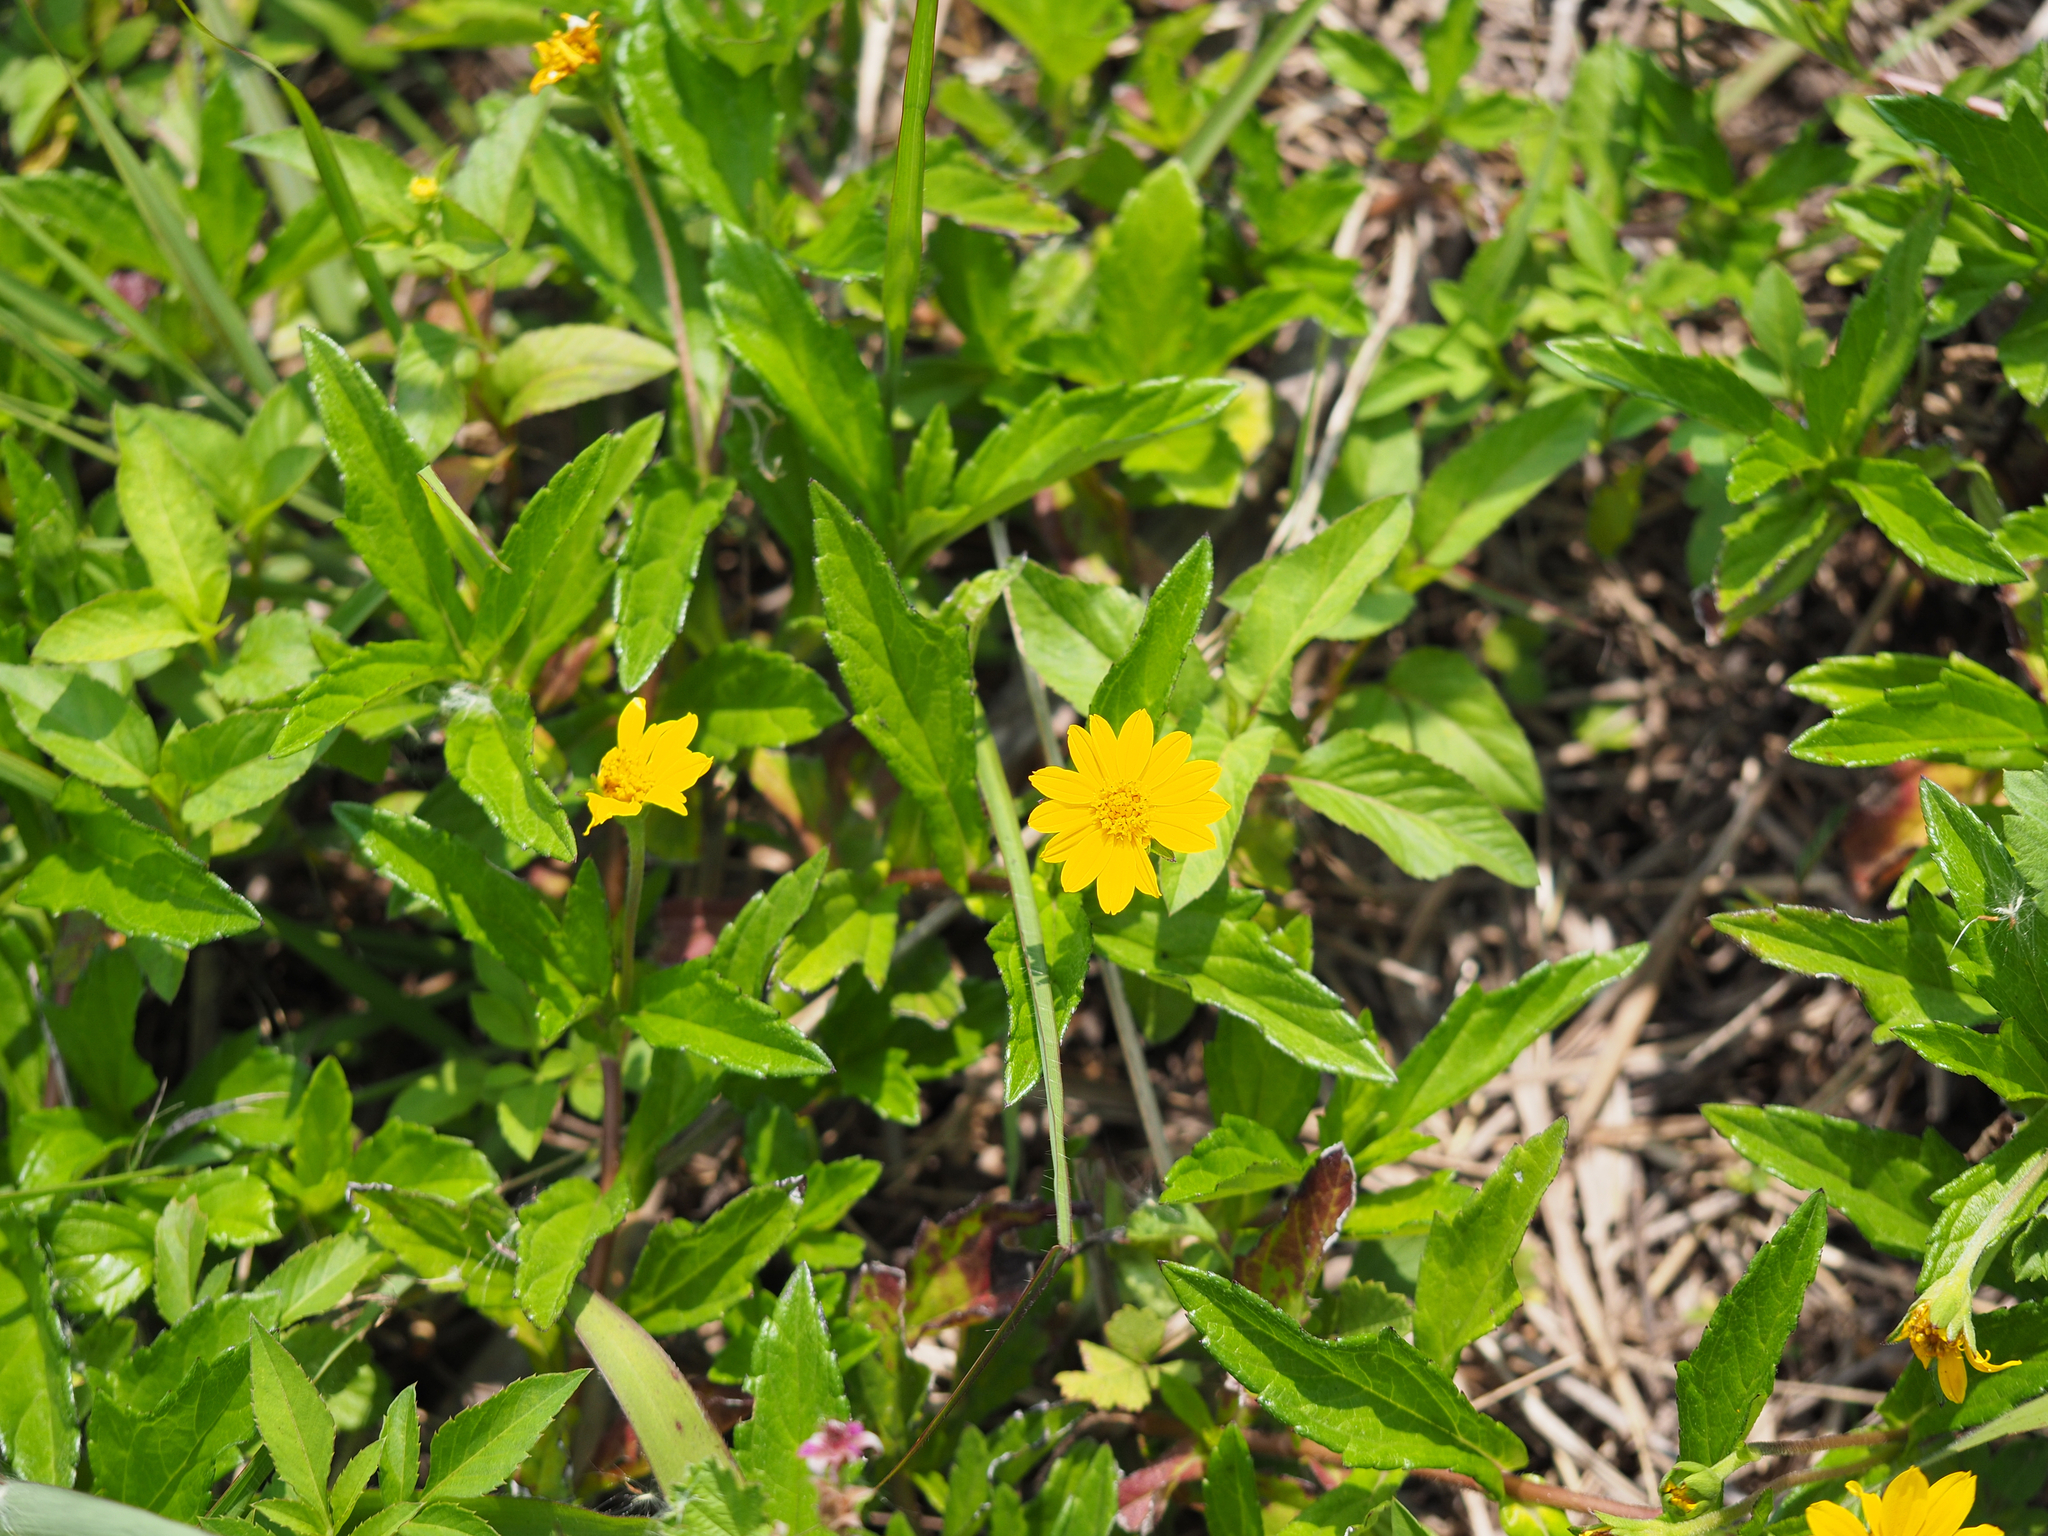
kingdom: Plantae
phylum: Tracheophyta
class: Magnoliopsida
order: Asterales
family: Asteraceae
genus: Sphagneticola
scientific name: Sphagneticola trilobata
